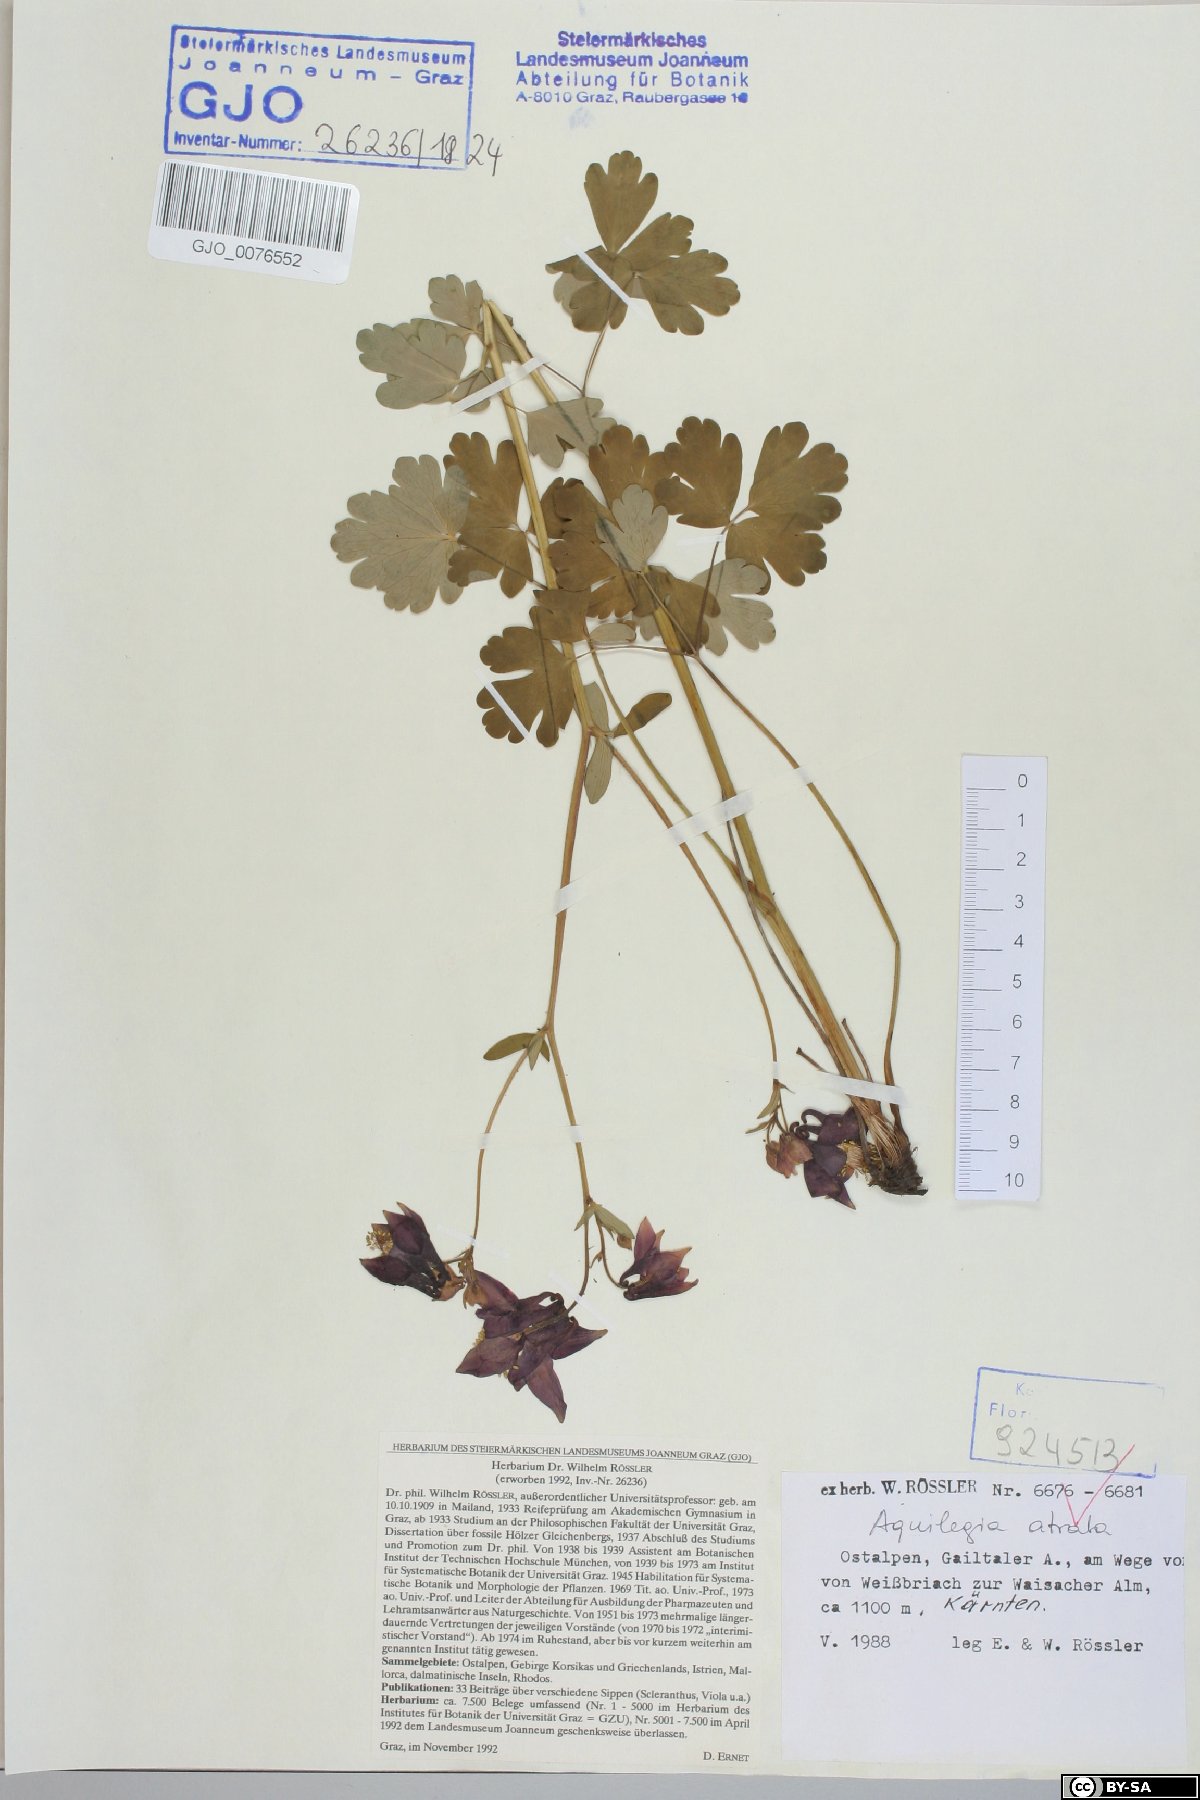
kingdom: Plantae
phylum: Tracheophyta
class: Magnoliopsida
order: Ranunculales
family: Ranunculaceae
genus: Aquilegia
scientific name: Aquilegia atrata
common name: Dark columbine
